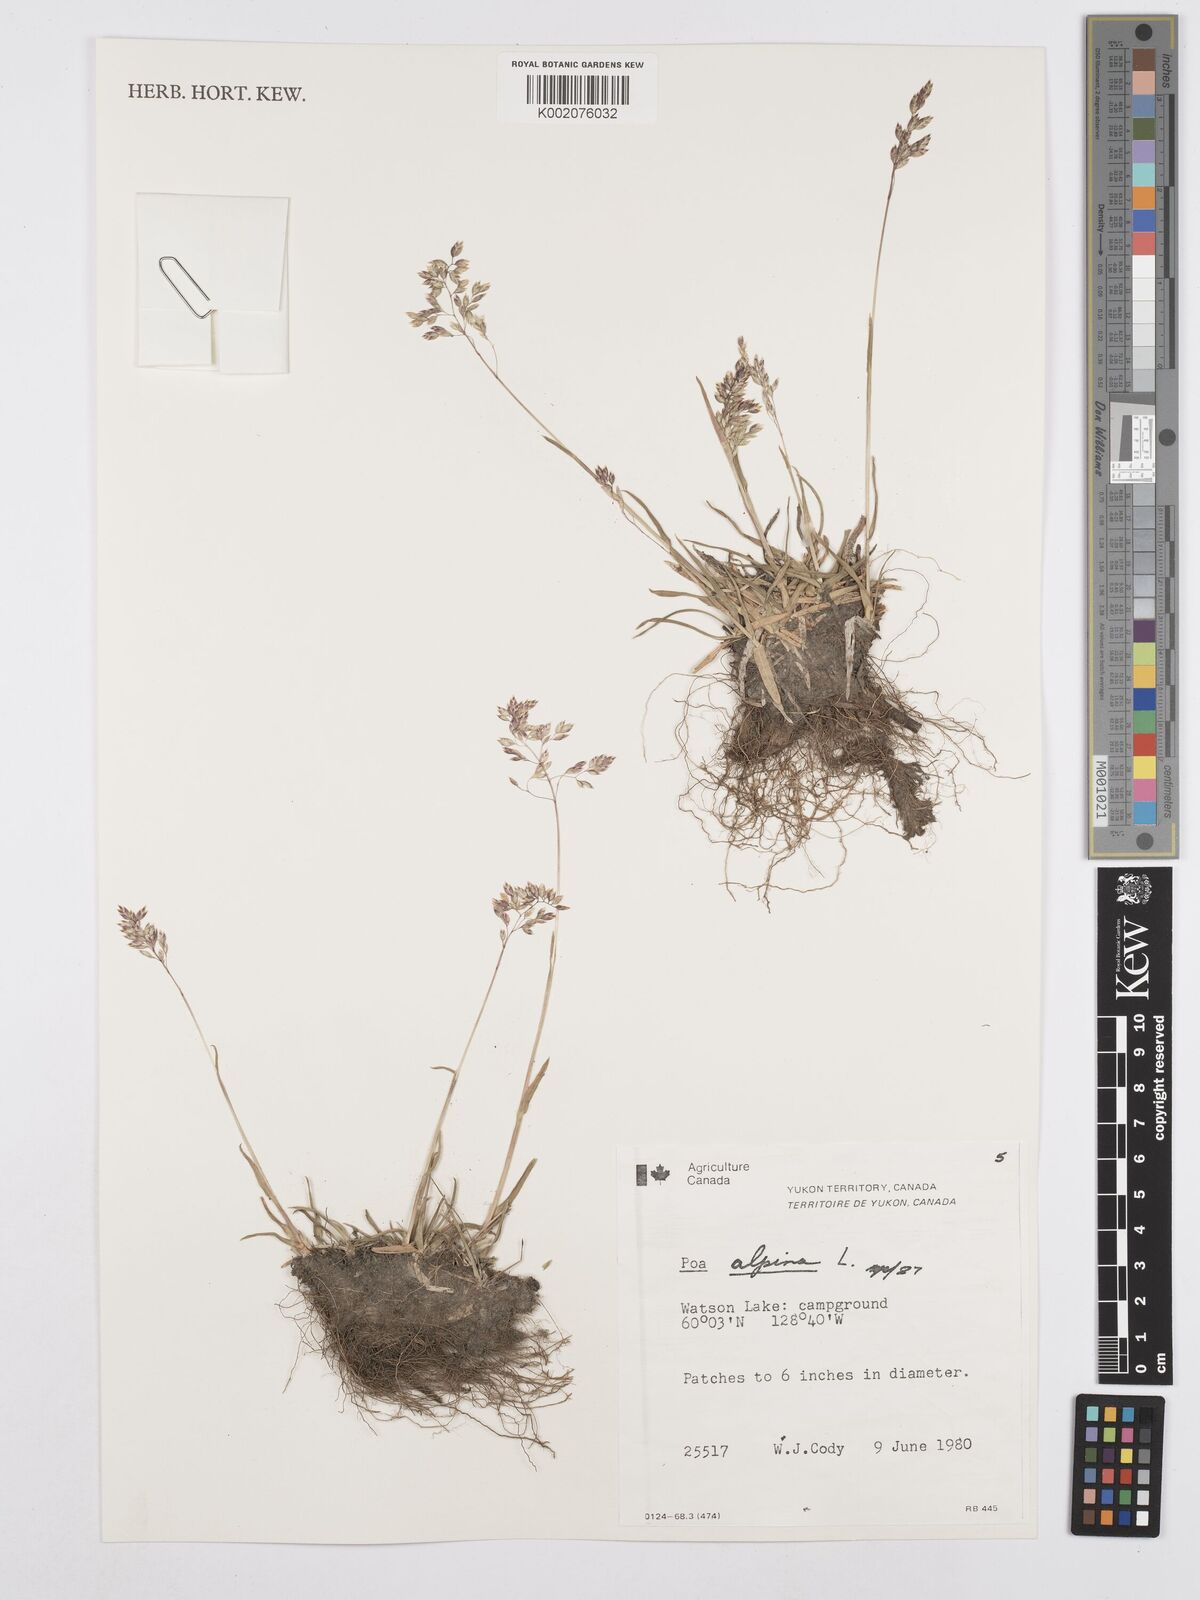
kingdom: Plantae
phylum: Tracheophyta
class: Liliopsida
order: Poales
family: Poaceae
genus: Poa
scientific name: Poa alpina
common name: Alpine bluegrass
